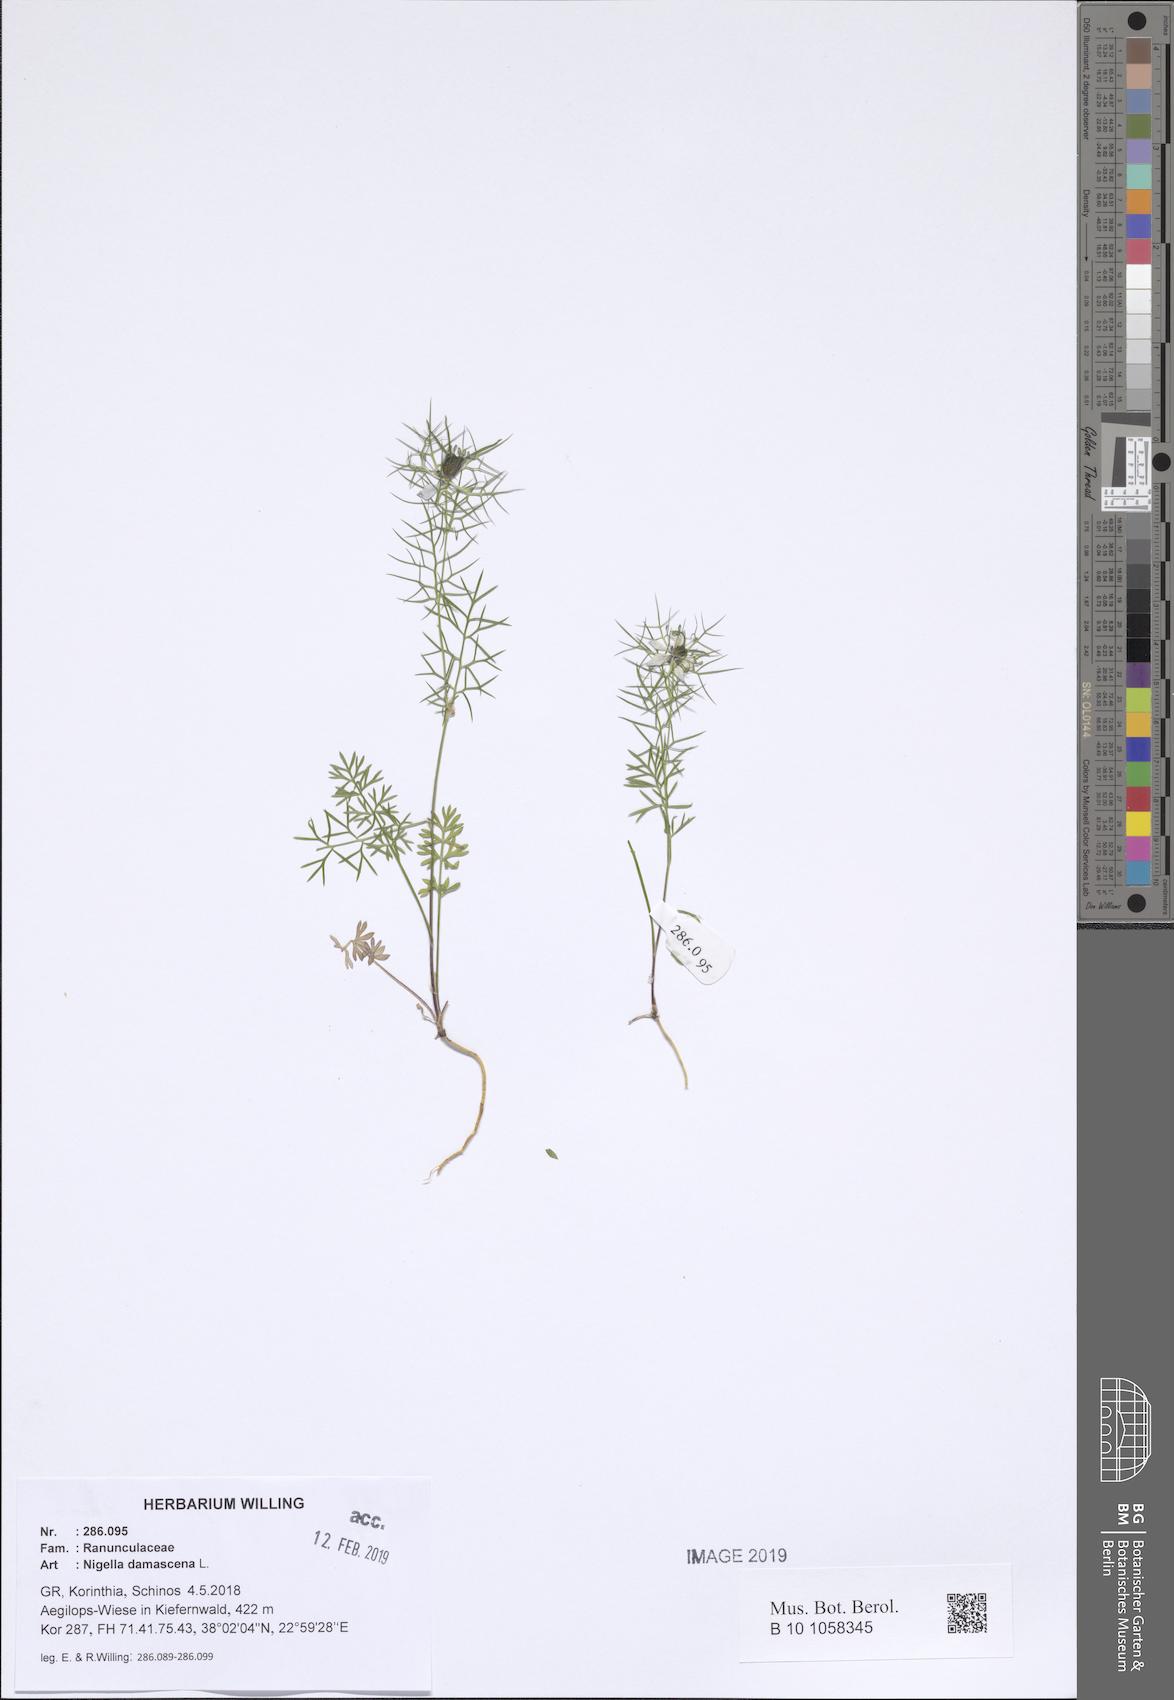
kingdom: Plantae
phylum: Tracheophyta
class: Magnoliopsida
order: Ranunculales
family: Ranunculaceae
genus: Nigella
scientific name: Nigella damascena
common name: Love-in-a-mist
